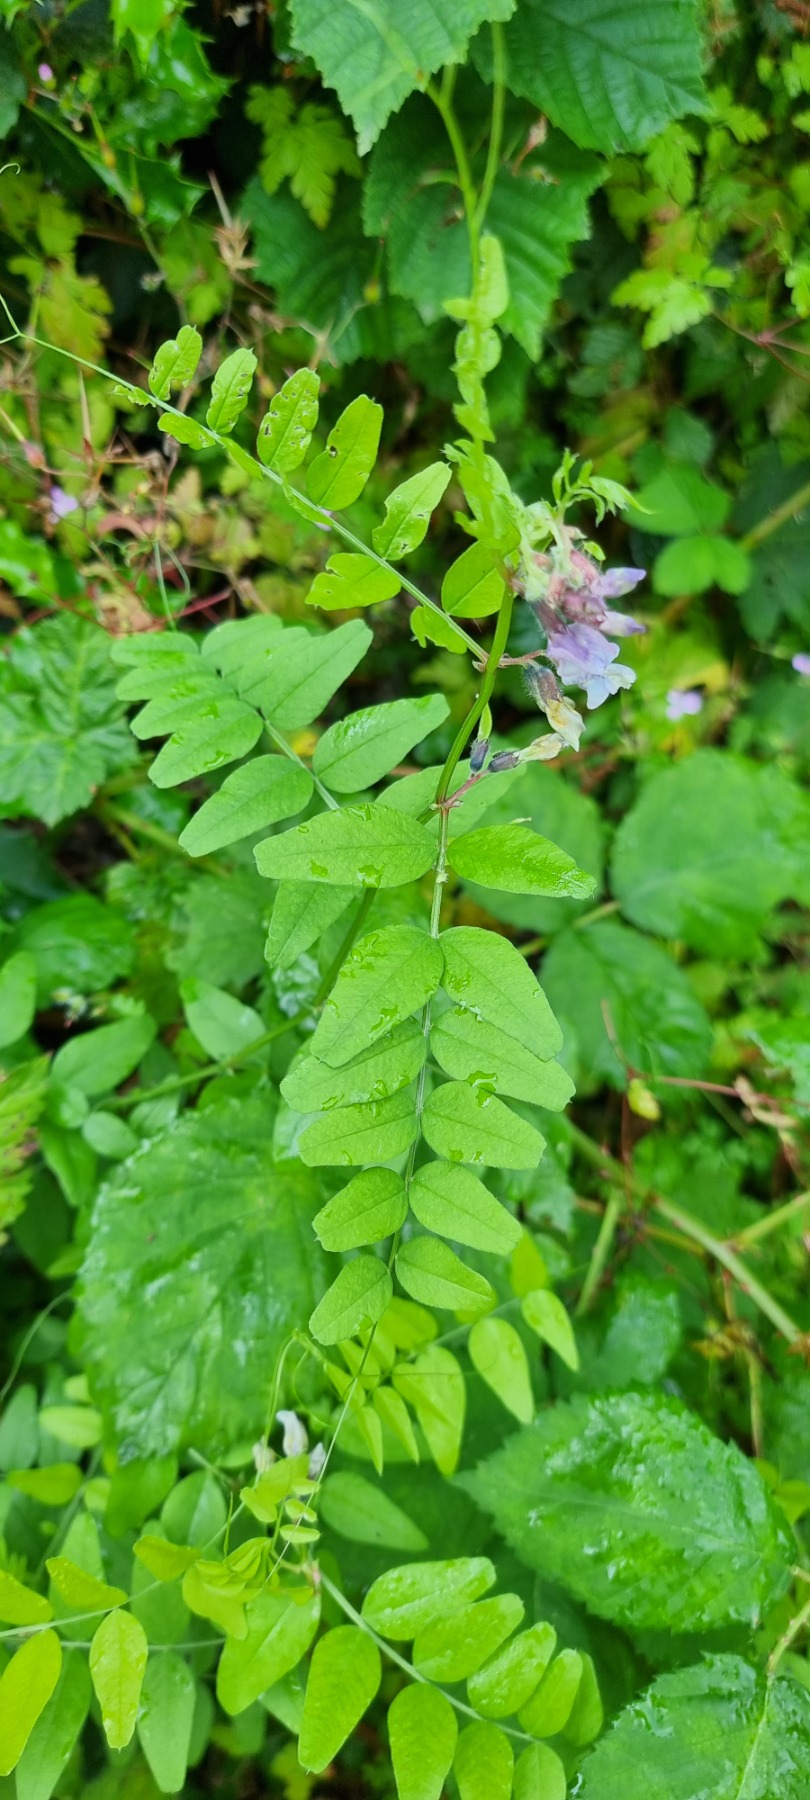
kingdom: Plantae
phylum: Tracheophyta
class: Magnoliopsida
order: Fabales
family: Fabaceae
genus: Vicia
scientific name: Vicia sepium
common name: Gærde-vikke
